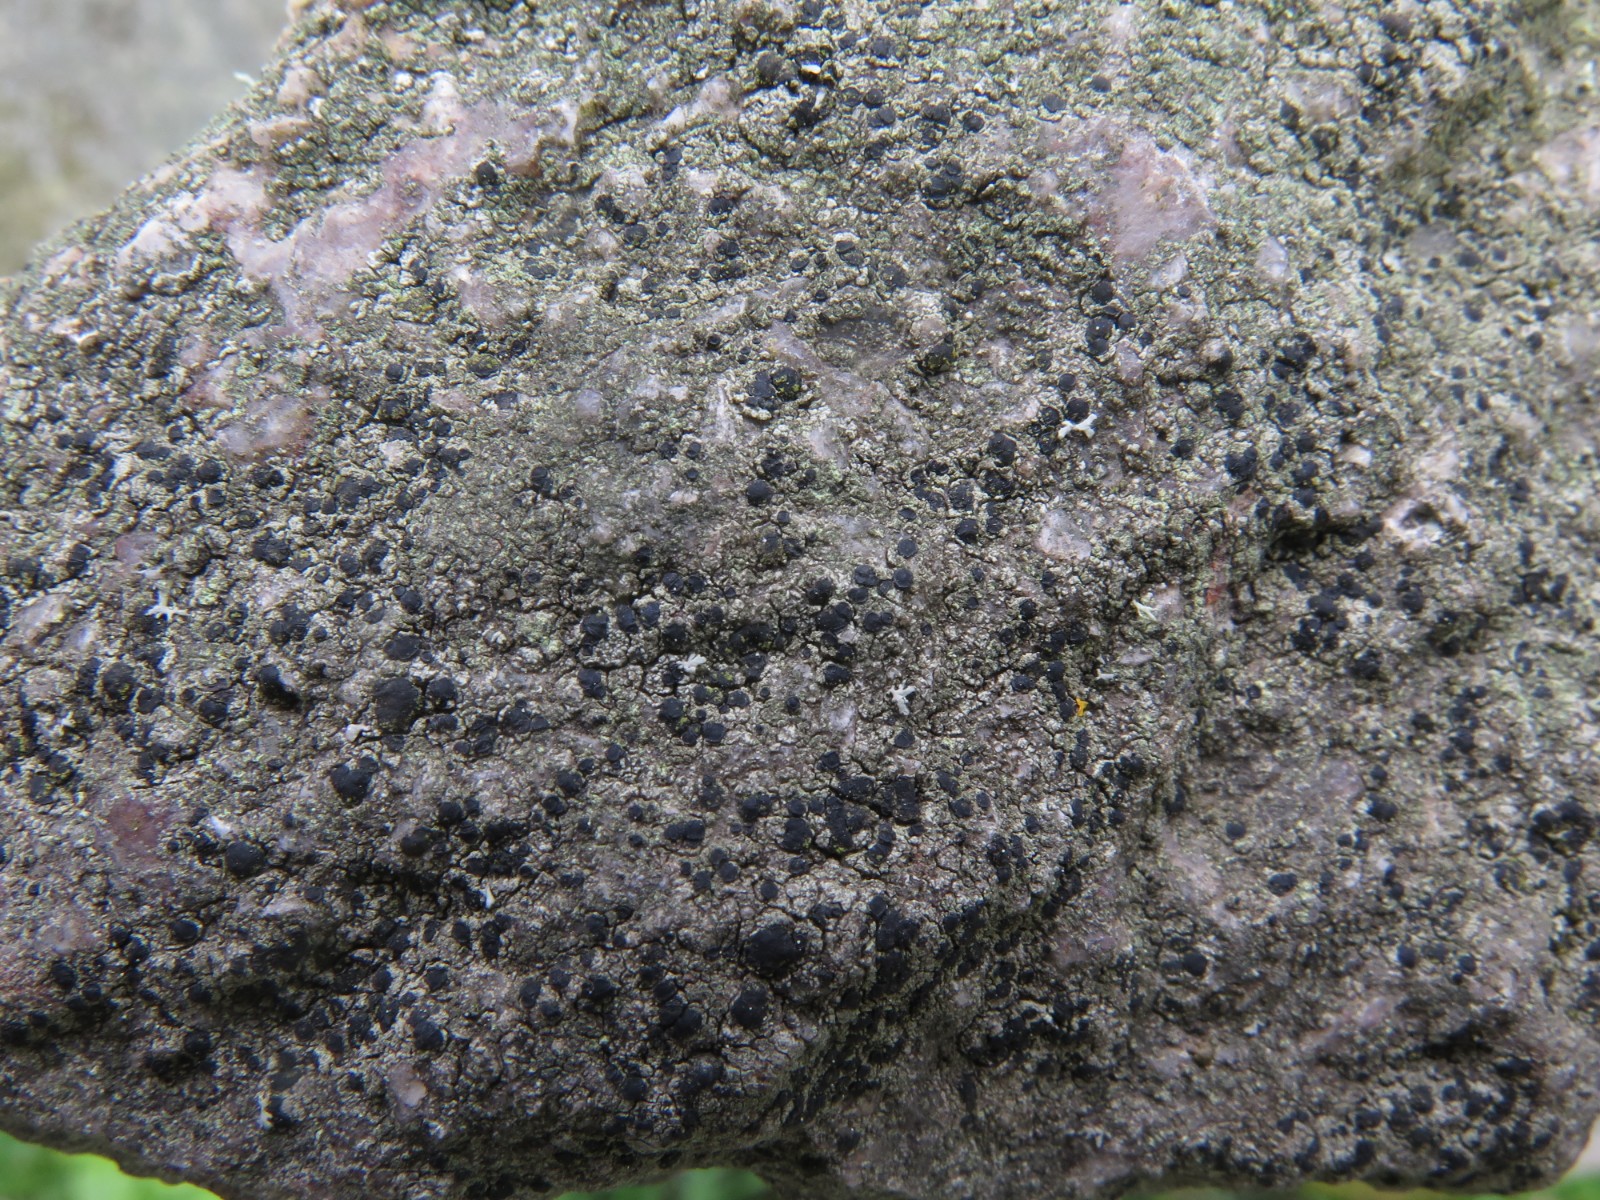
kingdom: Fungi
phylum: Ascomycota
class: Lecanoromycetes
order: Lecanorales
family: Lecanoraceae
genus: Lecidella
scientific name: Lecidella scabra
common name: skurvet skivelav
